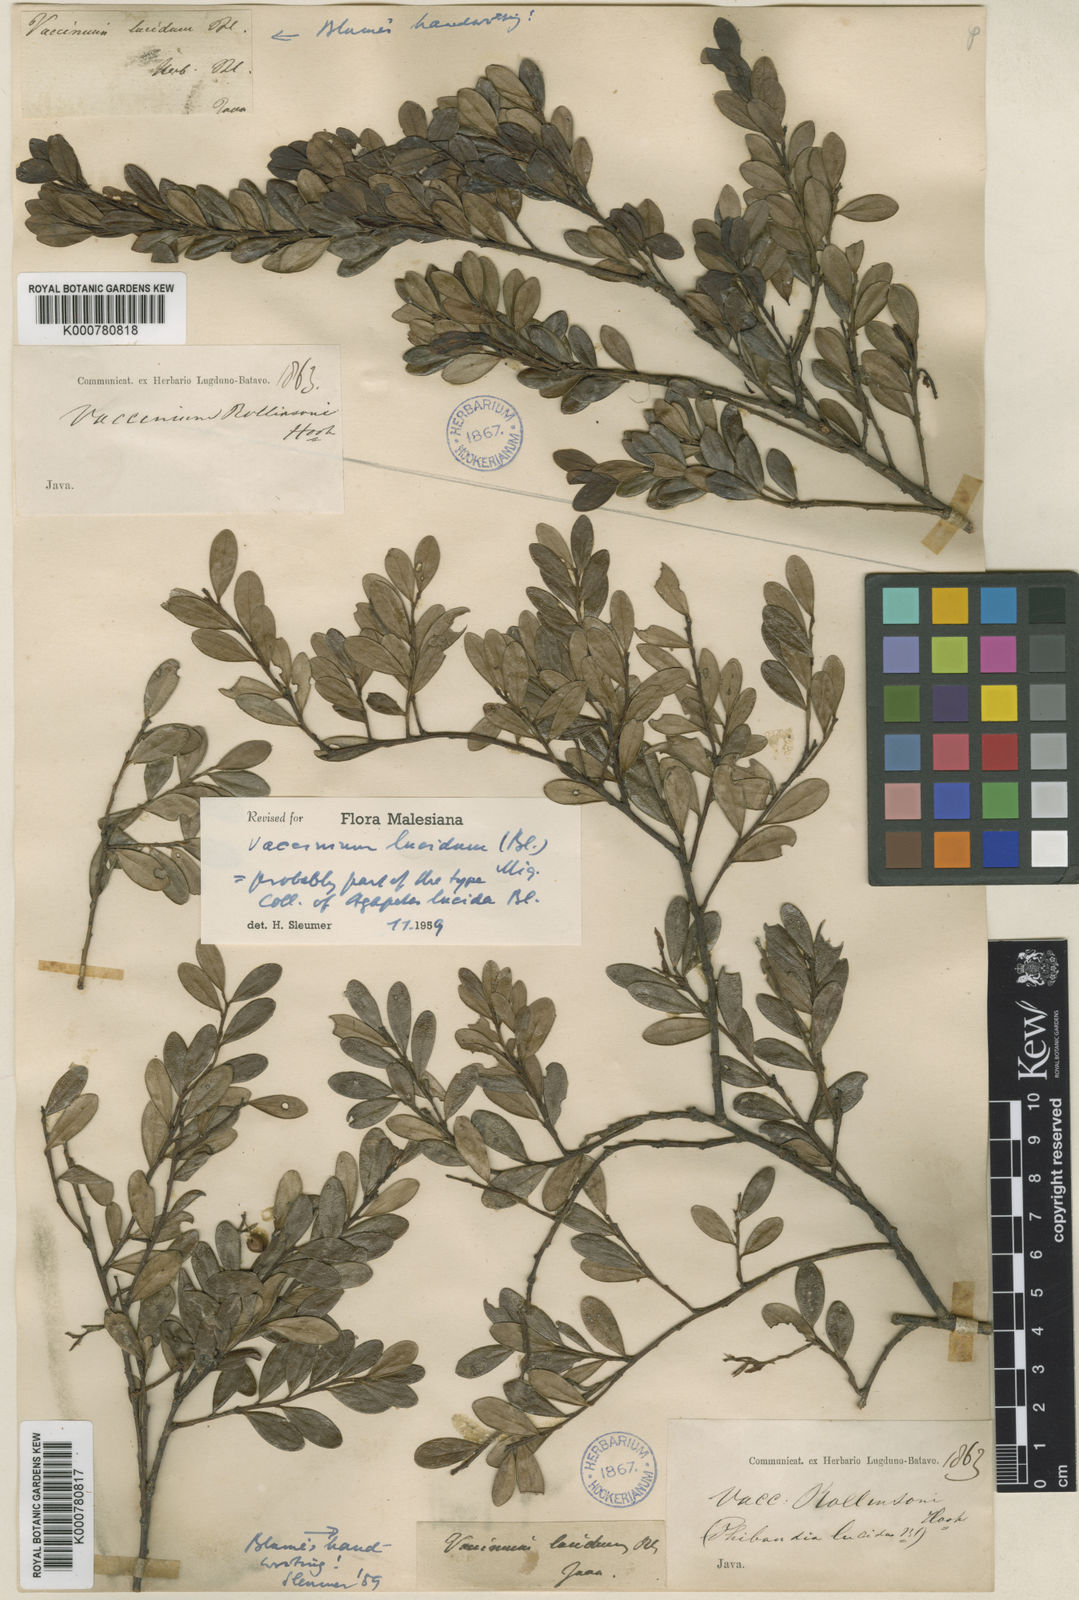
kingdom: Plantae
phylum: Tracheophyta
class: Magnoliopsida
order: Ericales
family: Ericaceae
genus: Vaccinium
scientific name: Vaccinium lucidum
